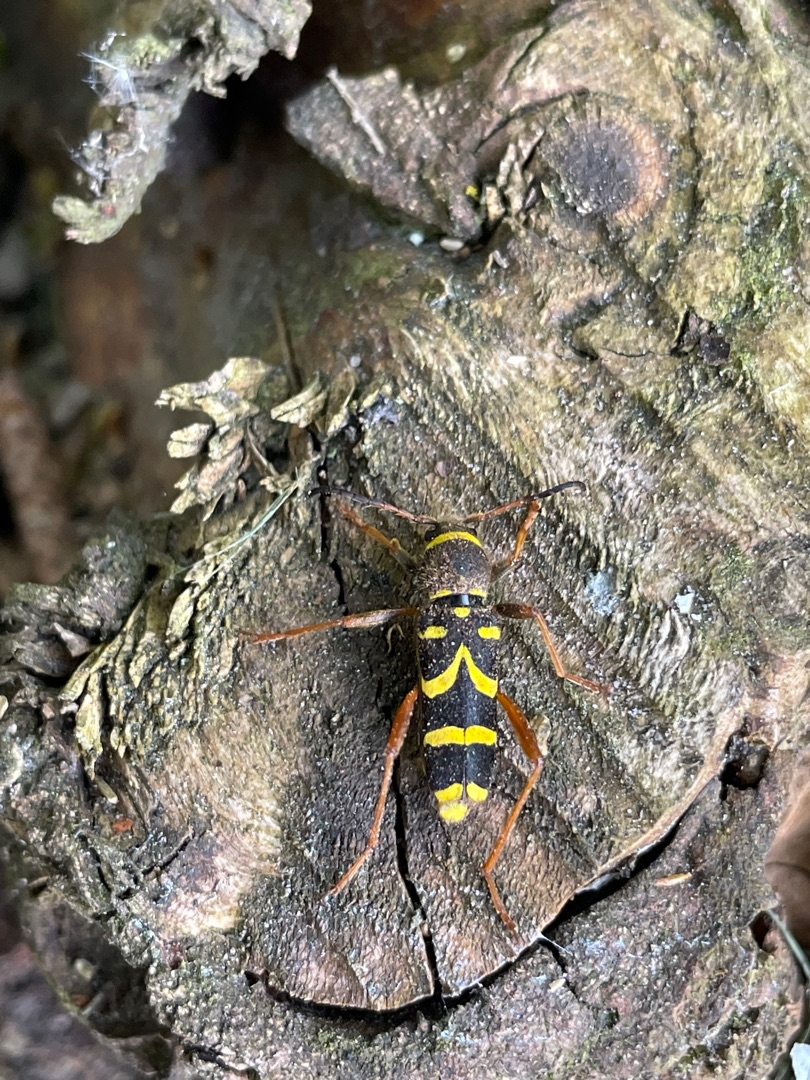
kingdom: Animalia
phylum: Arthropoda
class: Insecta
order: Coleoptera
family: Cerambycidae
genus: Clytus
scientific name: Clytus arietis
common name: Lille hvepsebuk
